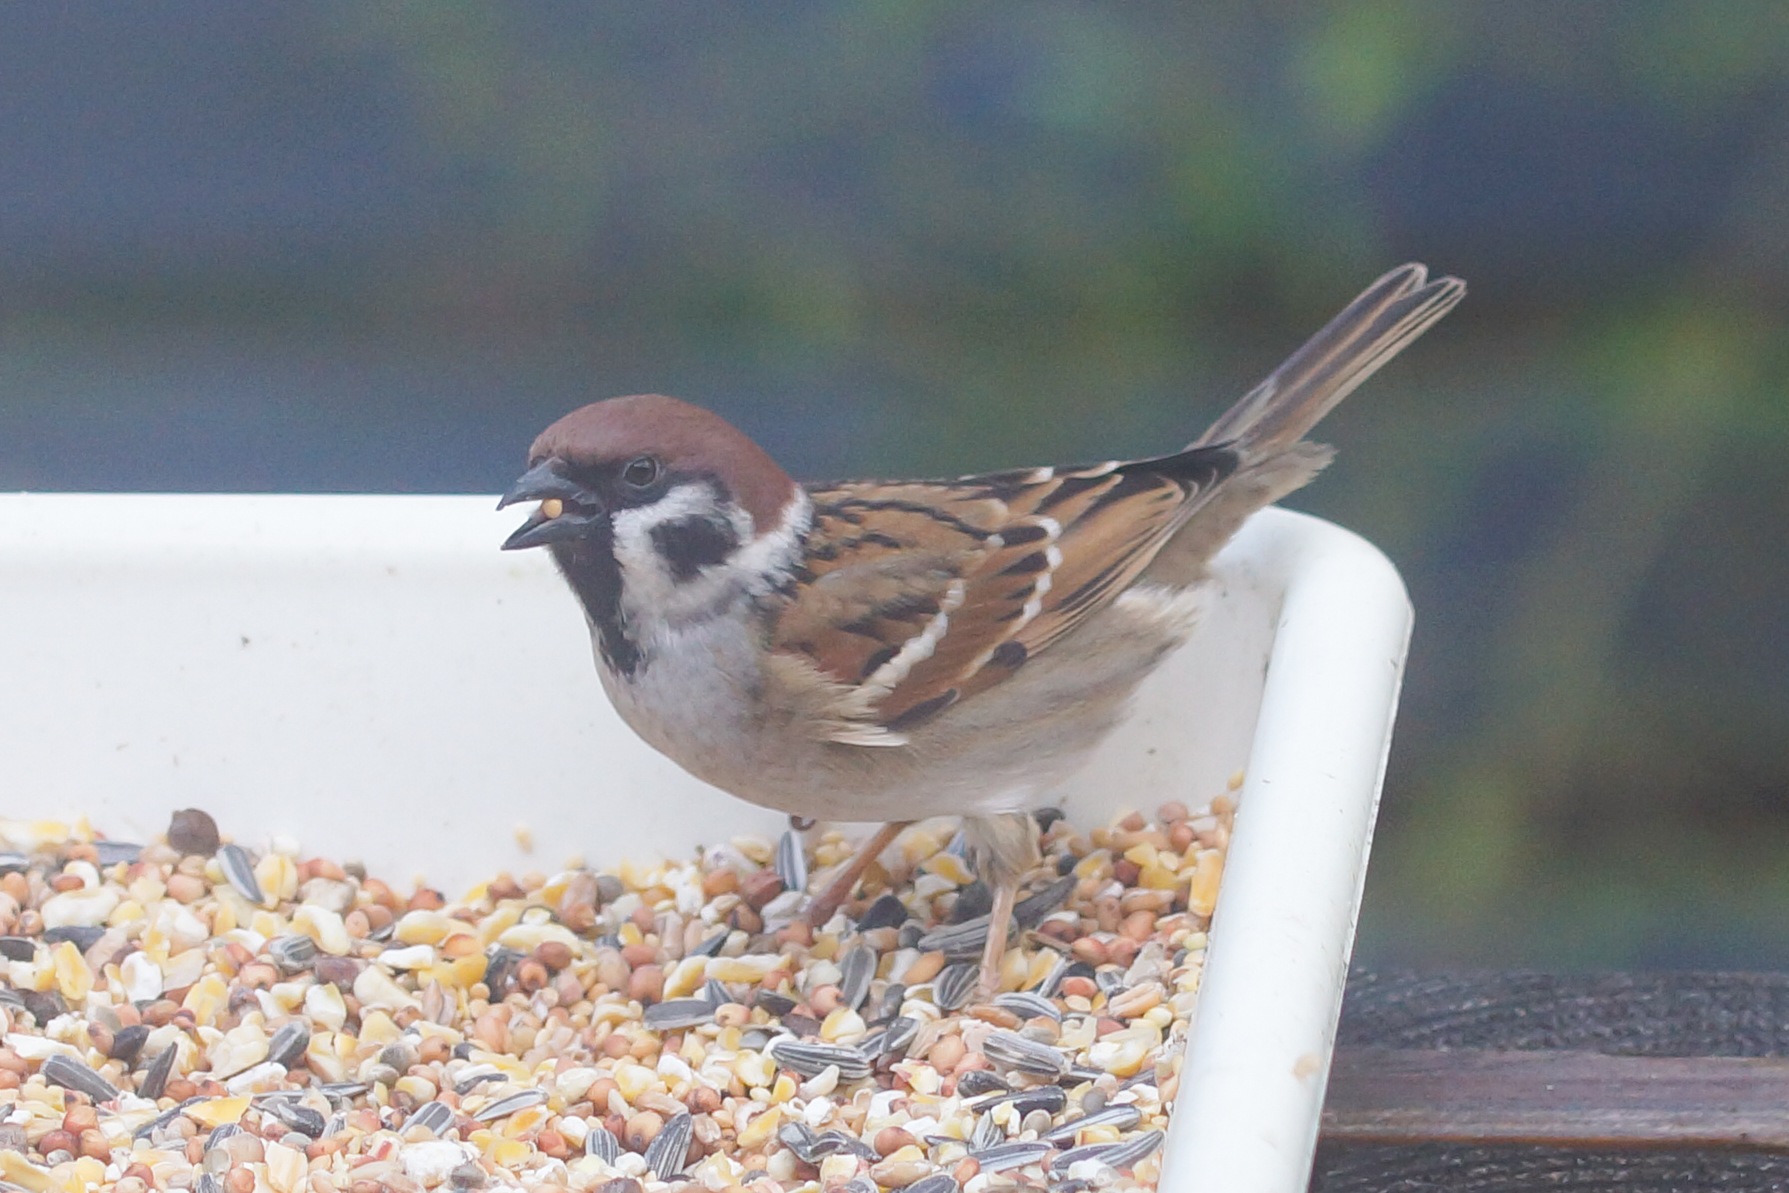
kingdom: Animalia
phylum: Chordata
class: Aves
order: Passeriformes
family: Passeridae
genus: Passer
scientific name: Passer montanus
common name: Skovspurv
